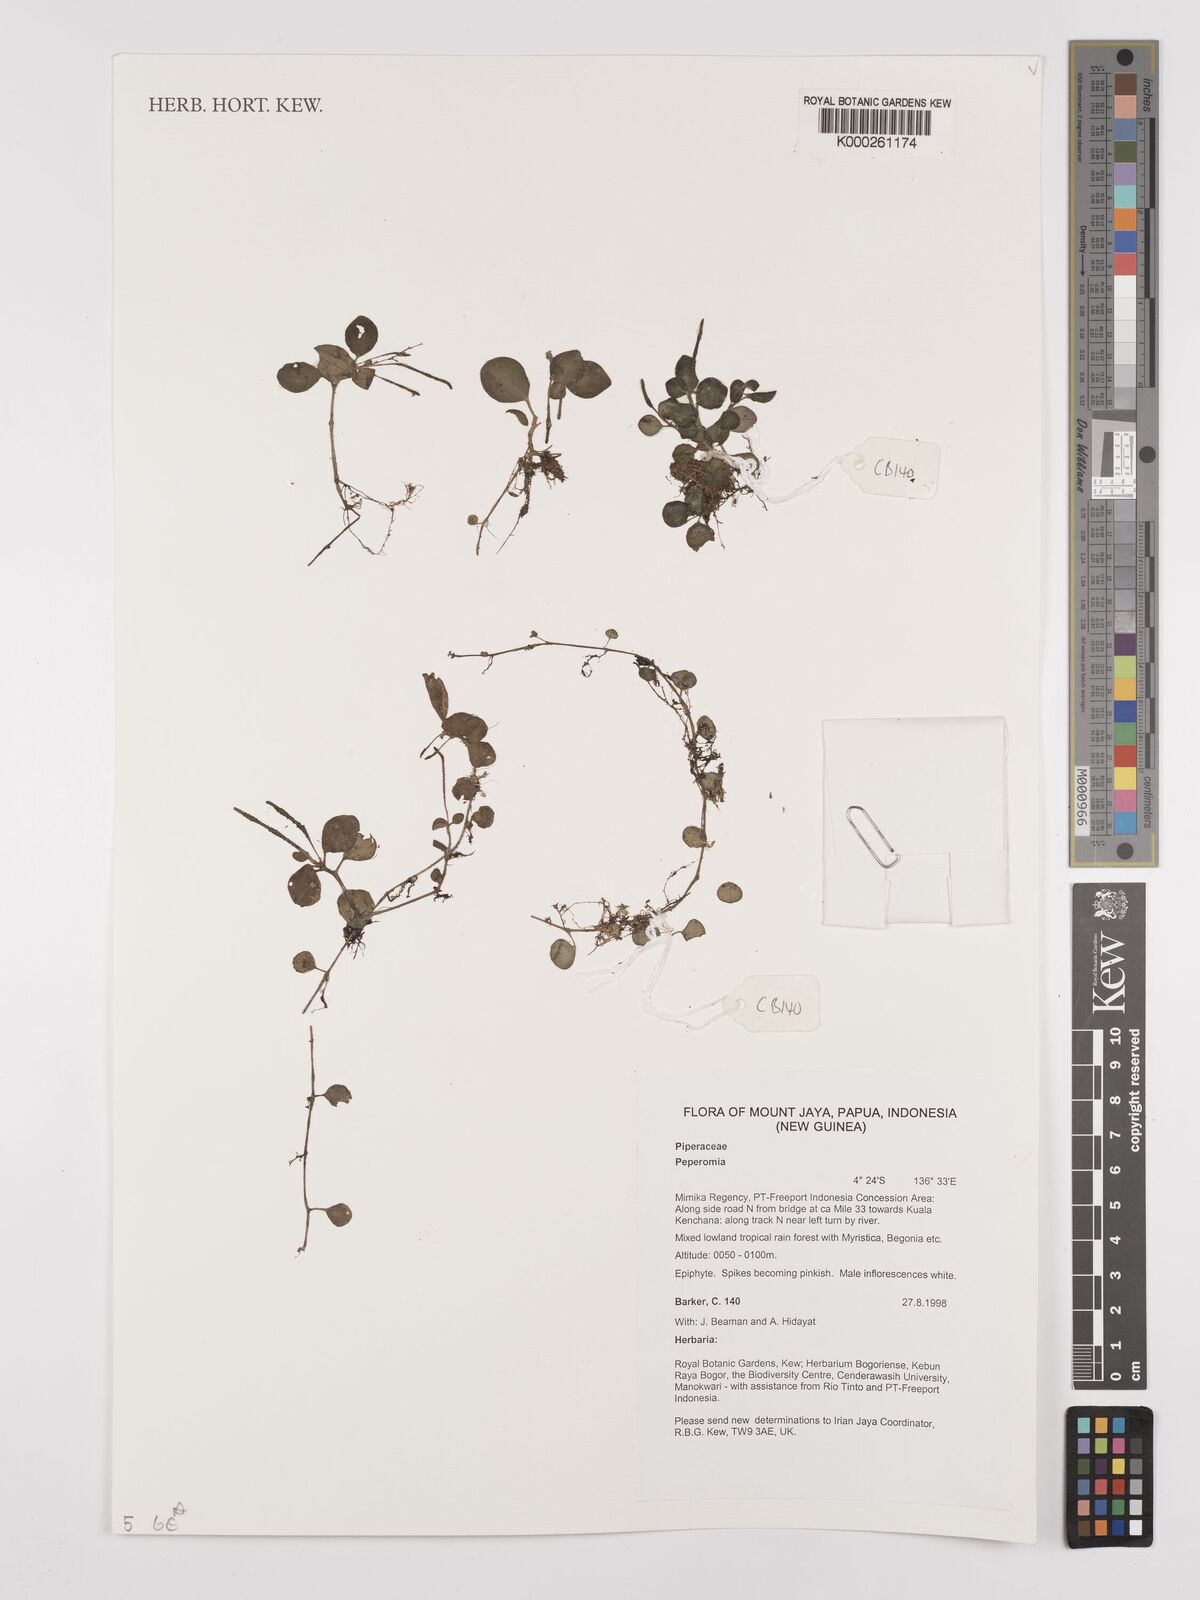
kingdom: Plantae
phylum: Tracheophyta
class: Magnoliopsida
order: Piperales
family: Piperaceae
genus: Peperomia
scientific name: Peperomia
